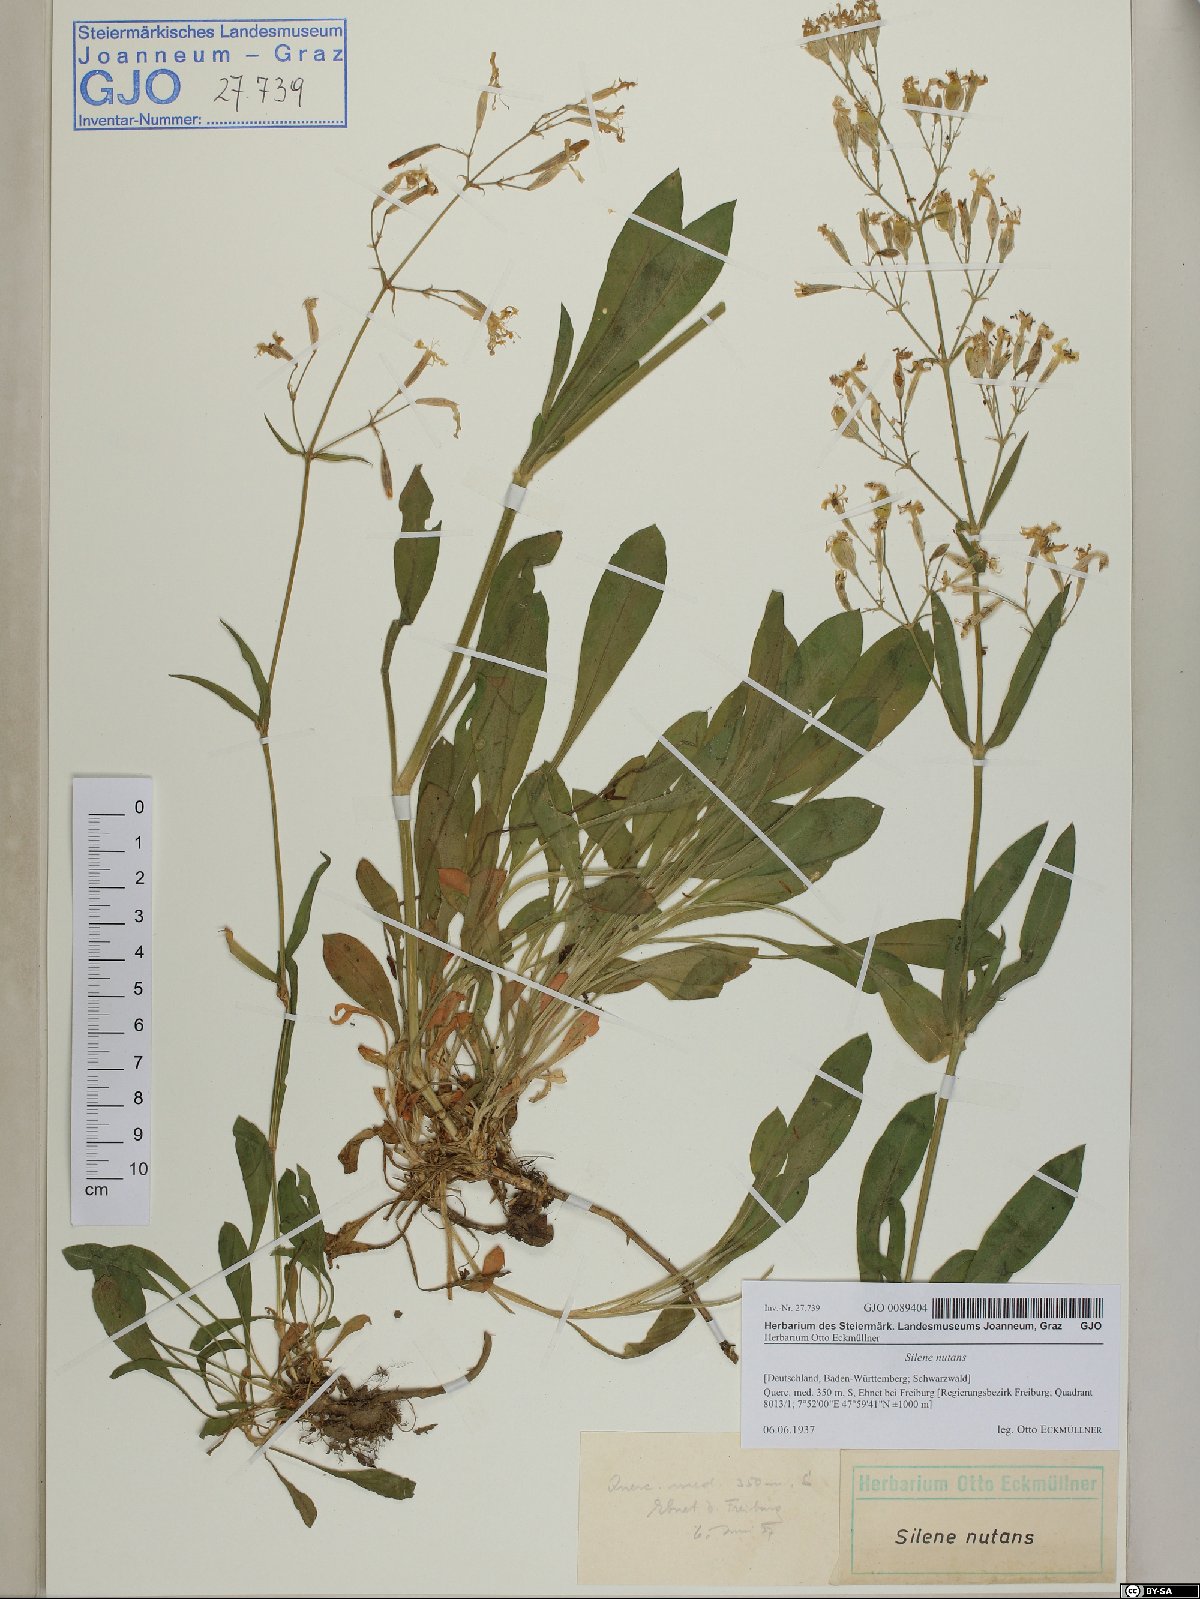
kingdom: Plantae
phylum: Tracheophyta
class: Magnoliopsida
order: Caryophyllales
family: Caryophyllaceae
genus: Silene
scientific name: Silene nutans
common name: Nottingham catchfly
